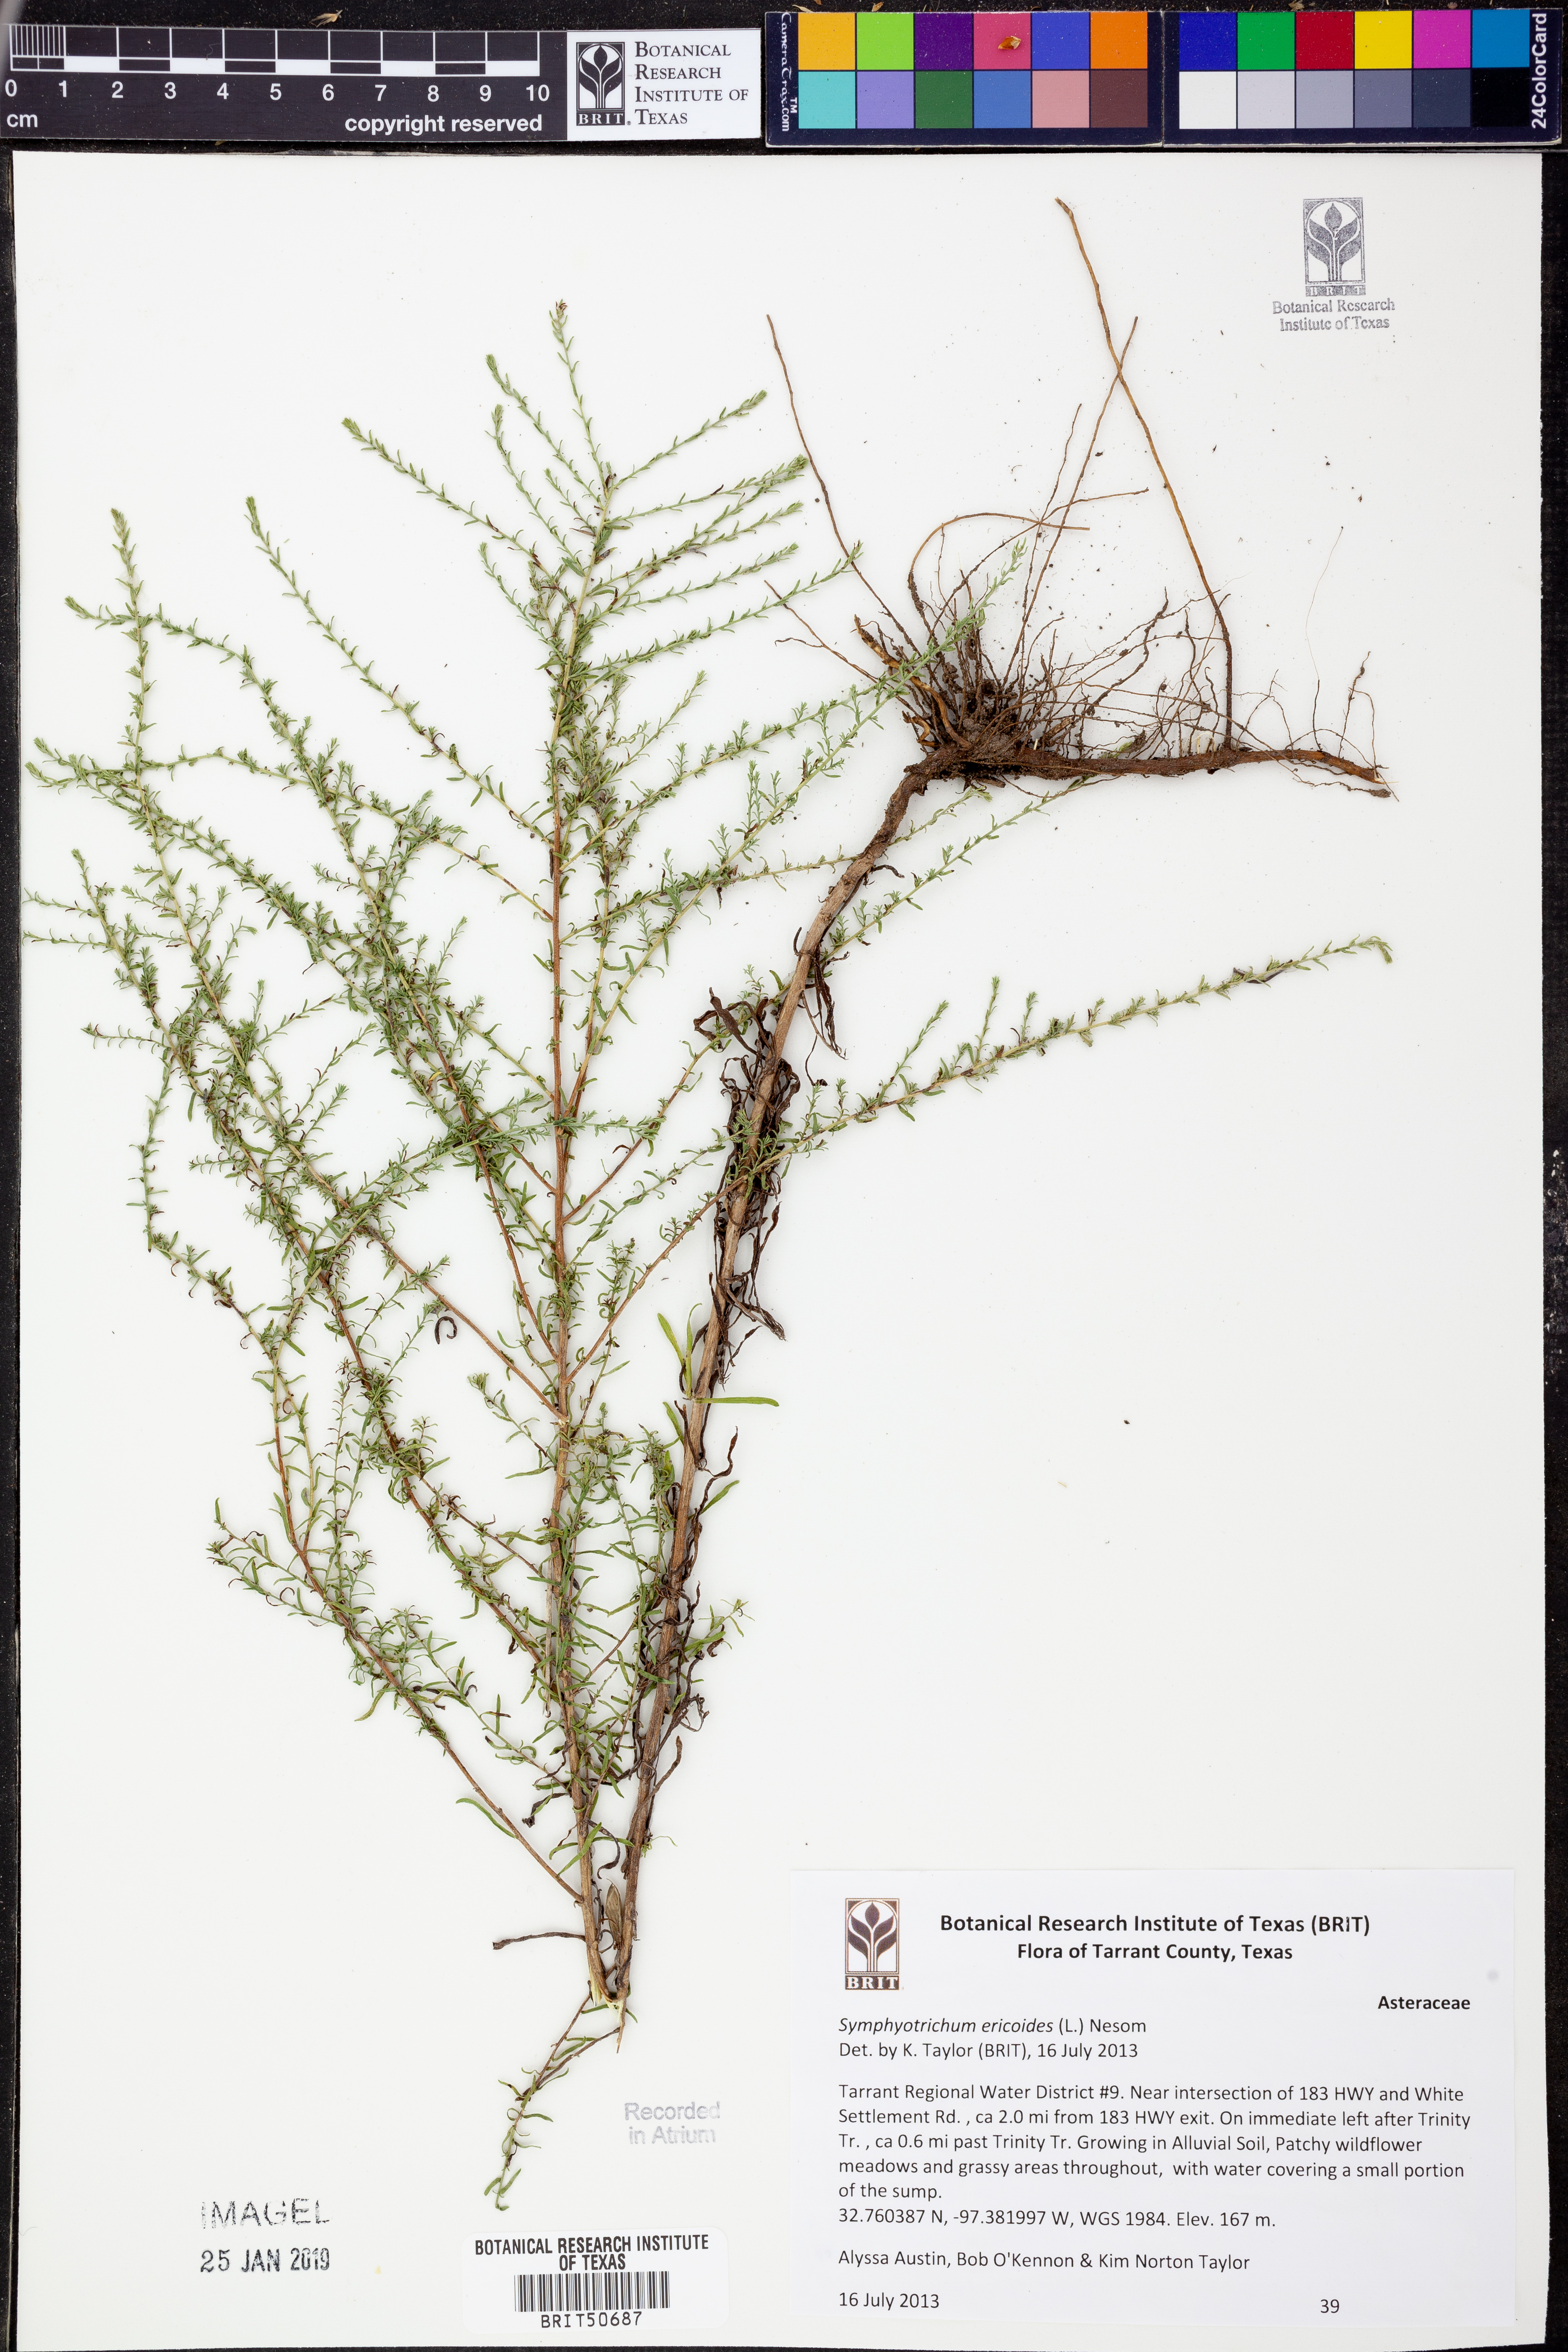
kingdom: Plantae
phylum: Tracheophyta
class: Magnoliopsida
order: Asterales
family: Asteraceae
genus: Symphyotrichum
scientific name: Symphyotrichum ericoides
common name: Heath aster
